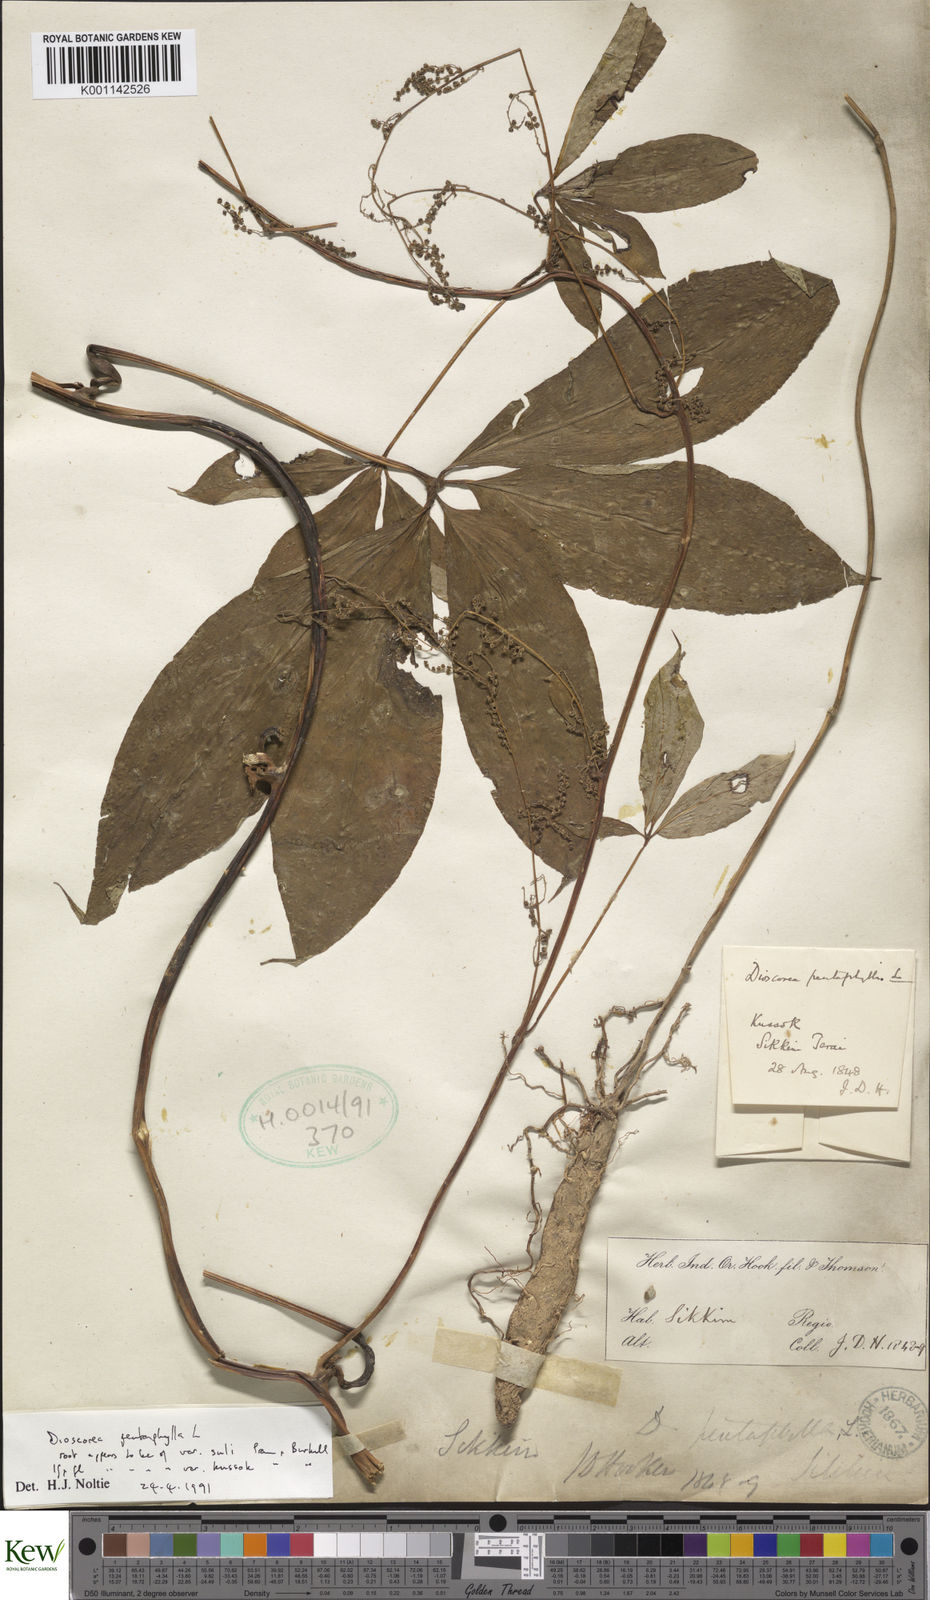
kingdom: Plantae
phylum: Tracheophyta
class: Liliopsida
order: Dioscoreales
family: Dioscoreaceae
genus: Dioscorea
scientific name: Dioscorea pentaphylla
